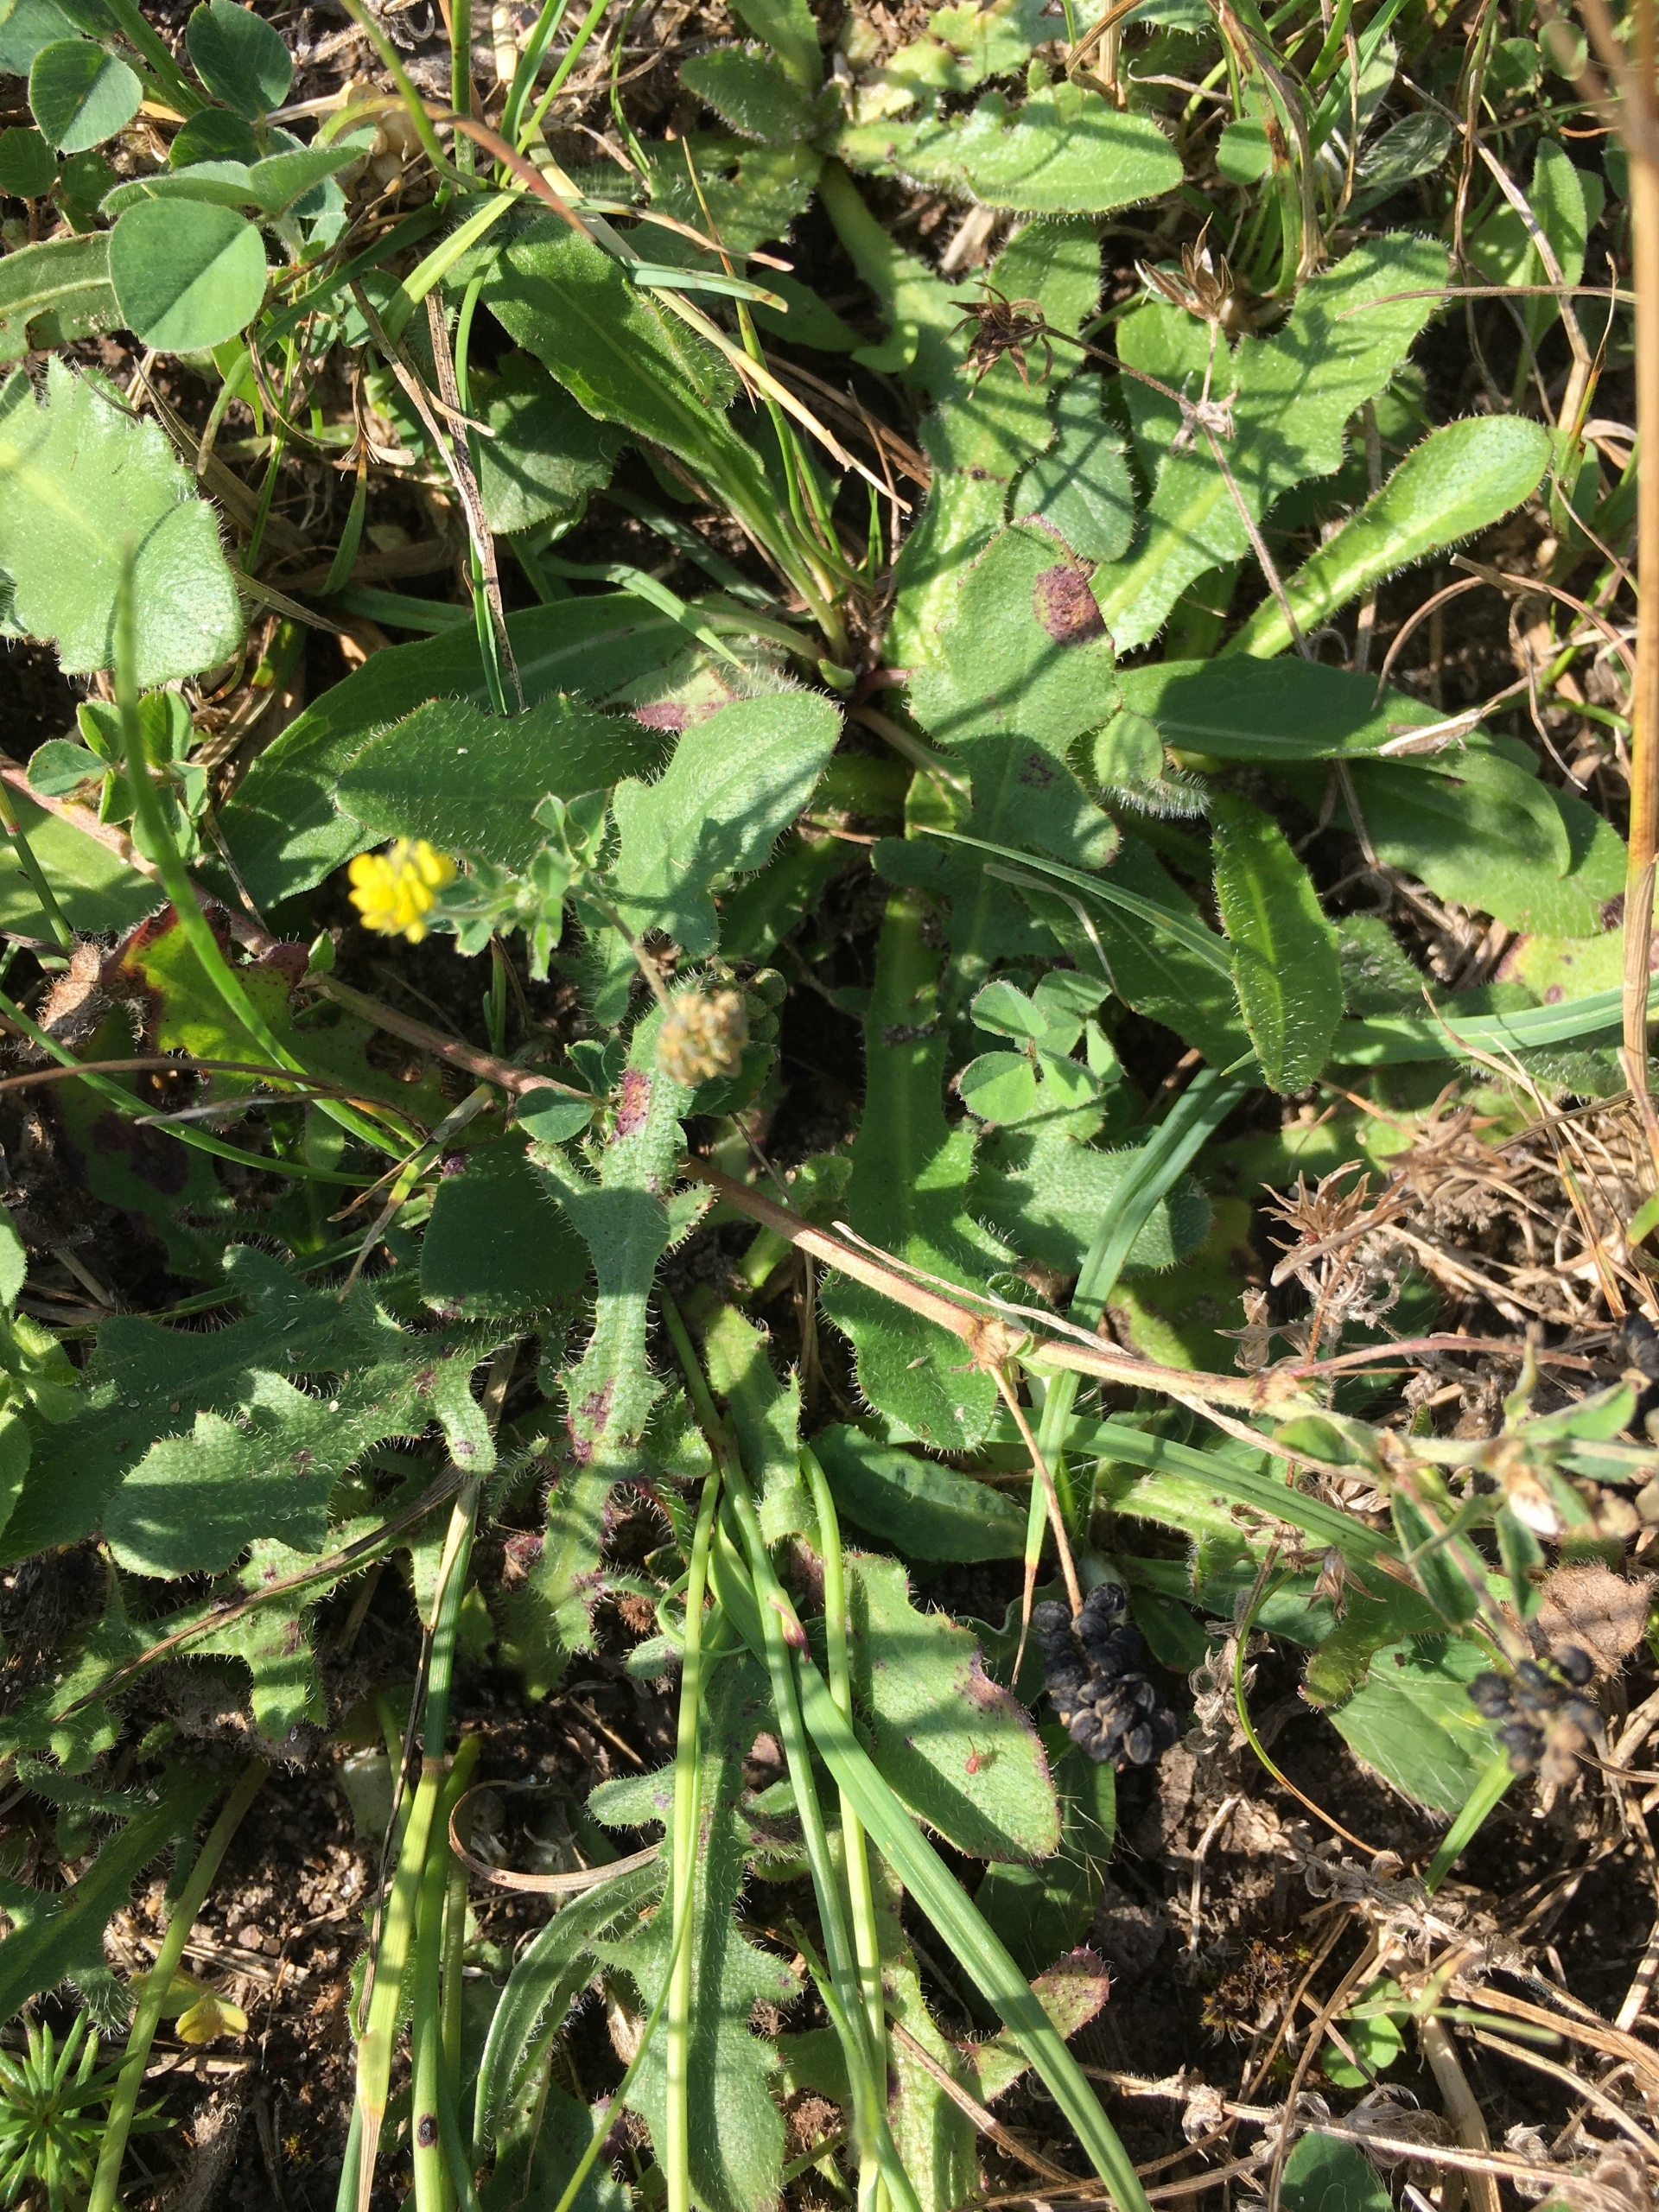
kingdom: Plantae
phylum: Tracheophyta
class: Magnoliopsida
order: Asterales
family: Asteraceae
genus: Hypochaeris
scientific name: Hypochaeris radicata
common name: Almindelig kongepen
